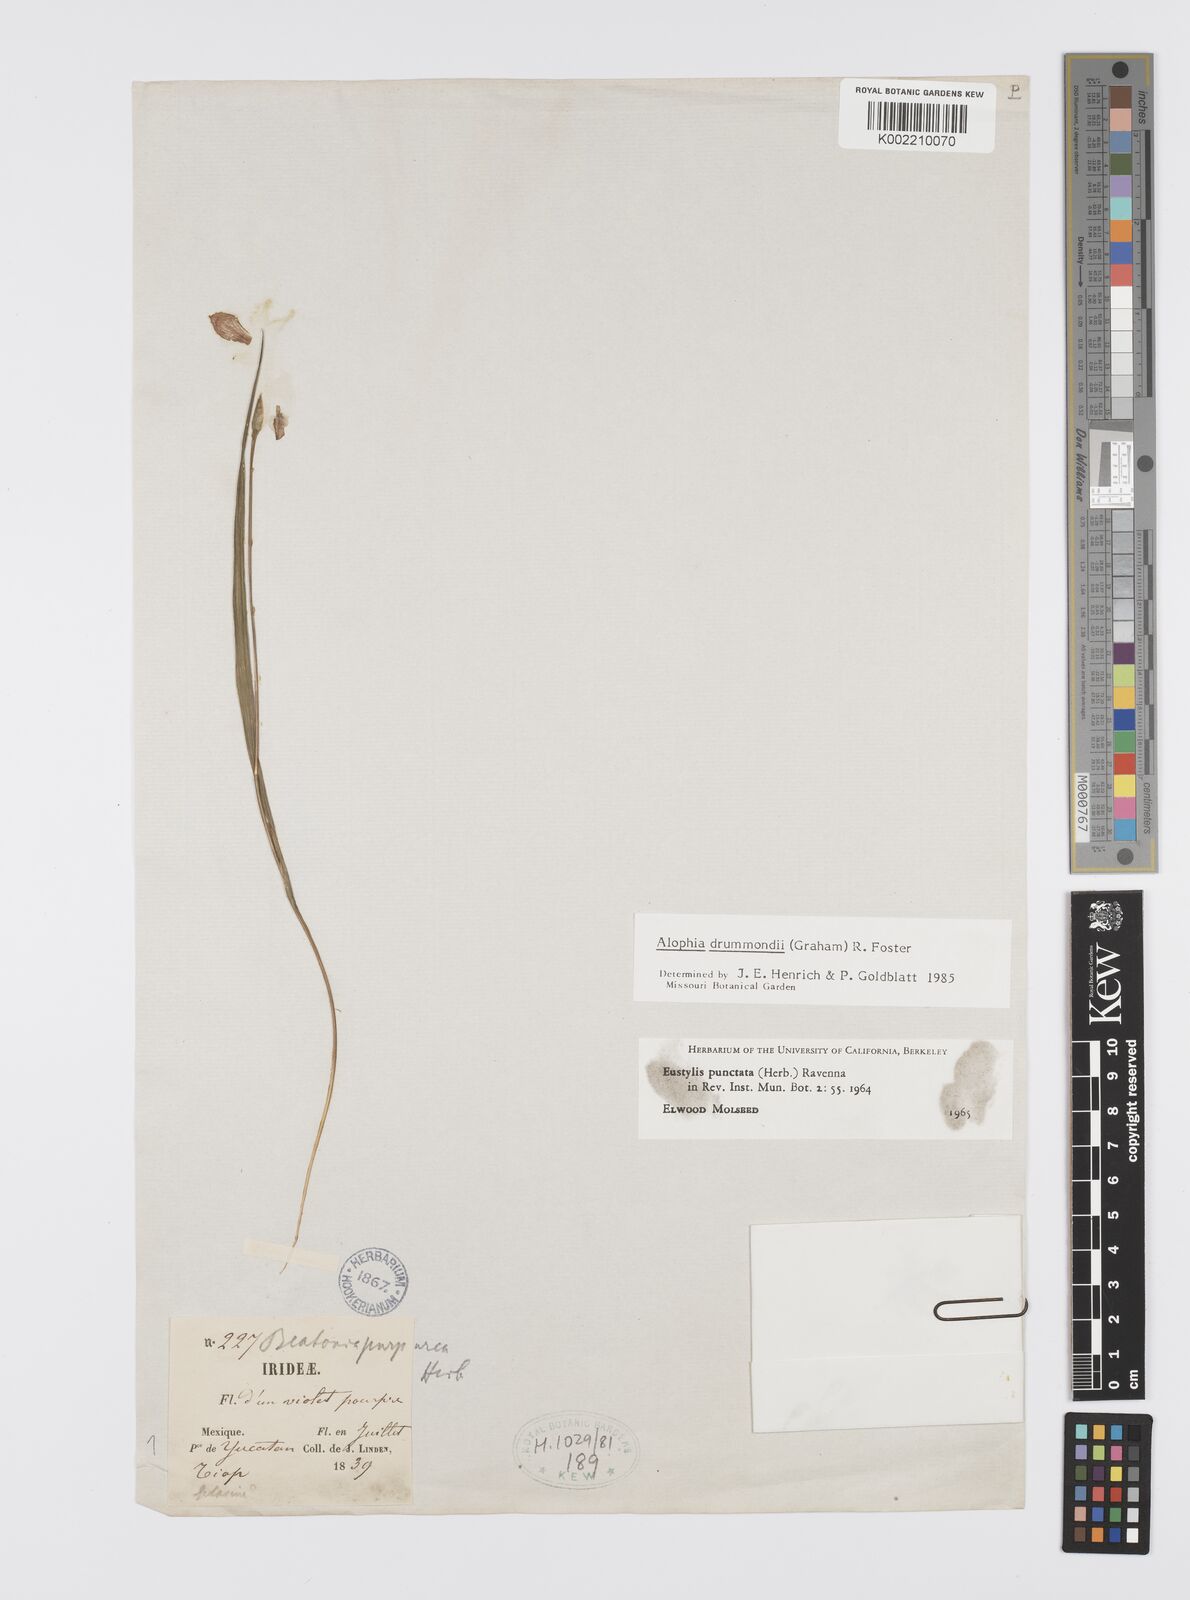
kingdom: Plantae
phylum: Tracheophyta
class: Liliopsida
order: Asparagales
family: Iridaceae
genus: Alophia
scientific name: Alophia drummondii
